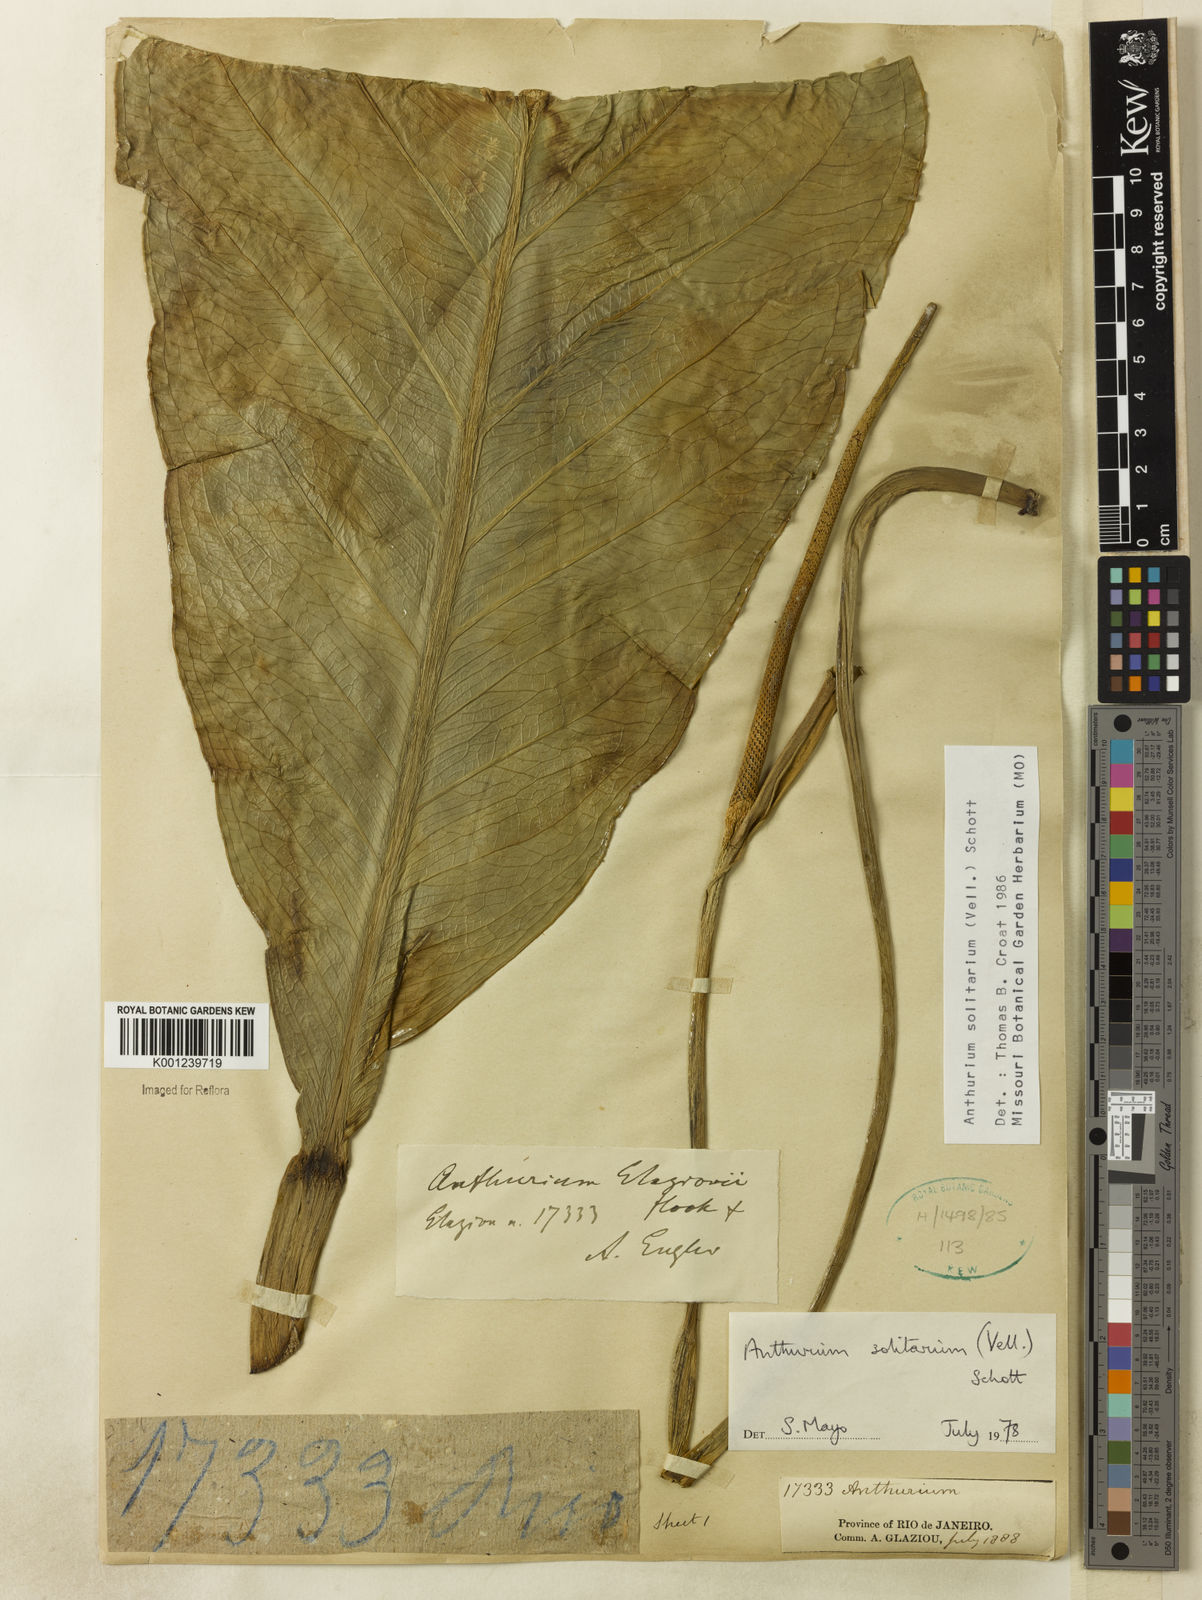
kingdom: Plantae
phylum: Tracheophyta
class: Liliopsida
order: Alismatales
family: Araceae
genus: Anthurium
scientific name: Anthurium solitarium
